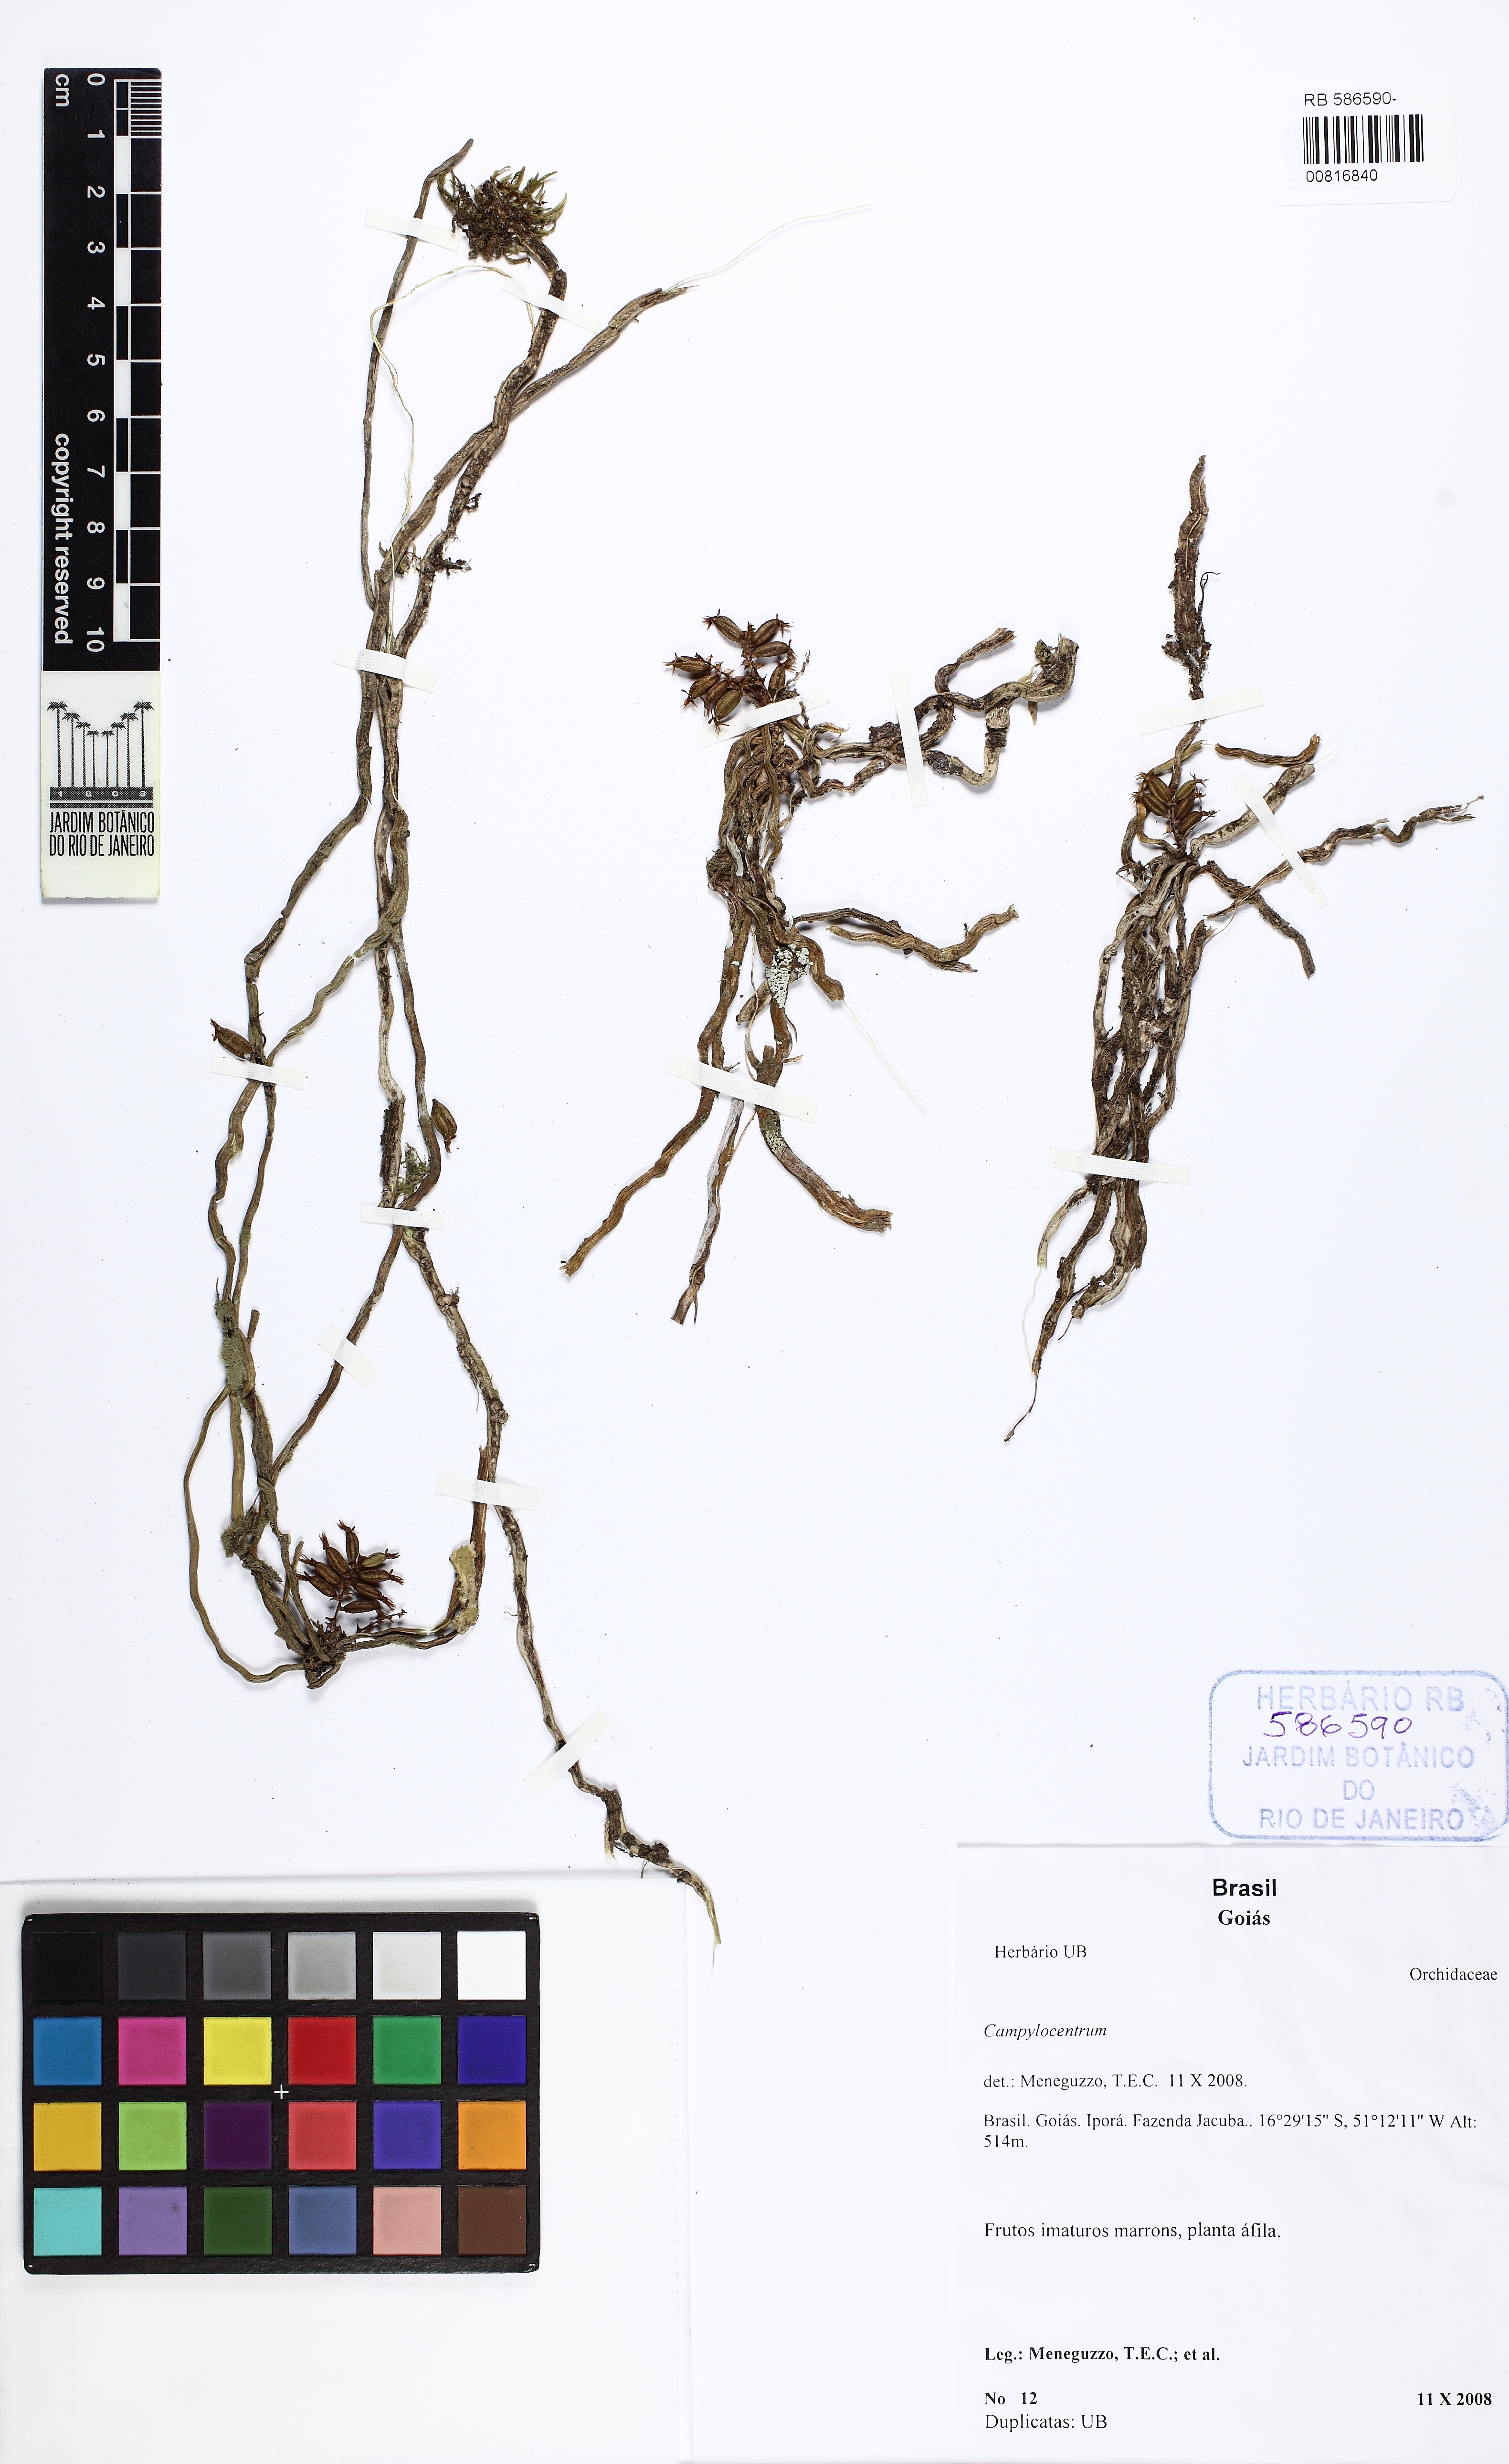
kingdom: Plantae
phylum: Tracheophyta
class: Liliopsida
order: Asparagales
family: Orchidaceae
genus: Campylocentrum
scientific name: Campylocentrum
